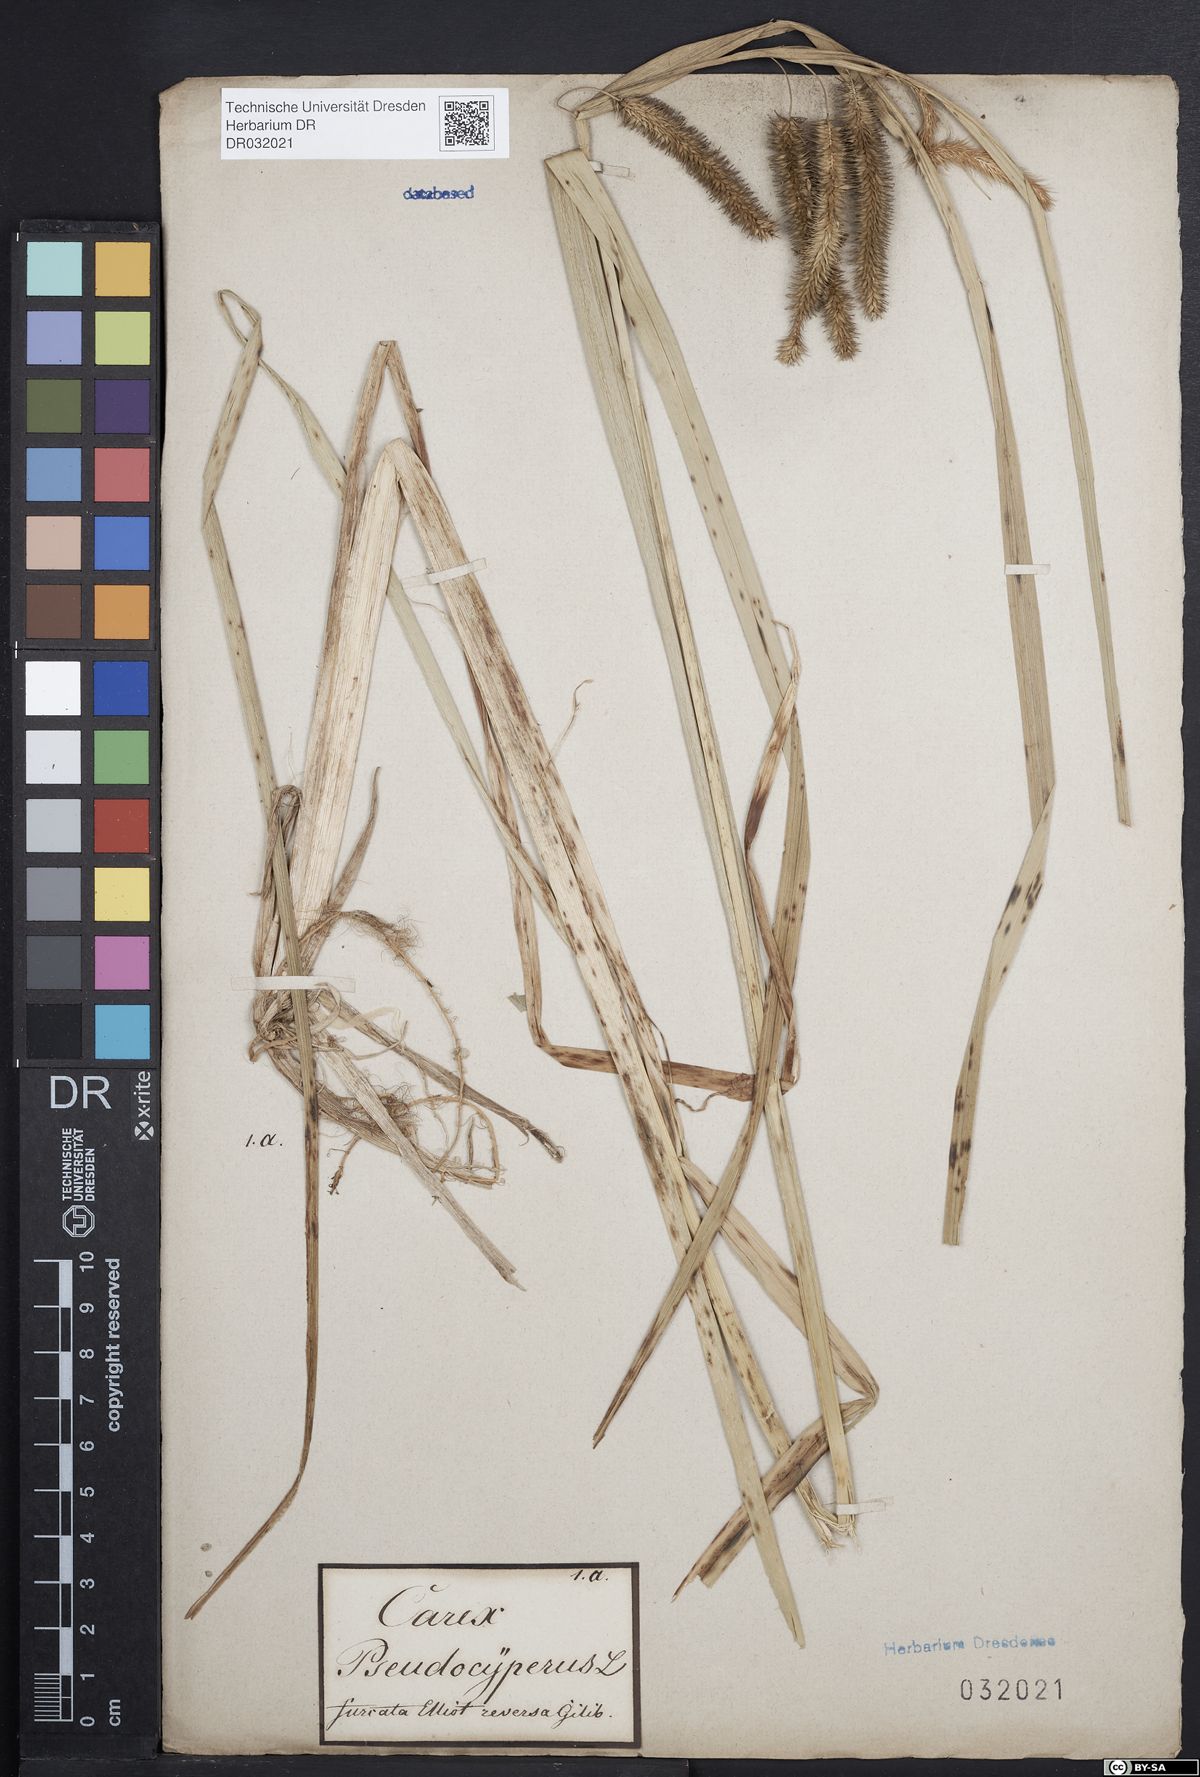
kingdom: Plantae
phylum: Tracheophyta
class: Liliopsida
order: Poales
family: Cyperaceae
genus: Carex
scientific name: Carex pseudocyperus
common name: Cyperus sedge
